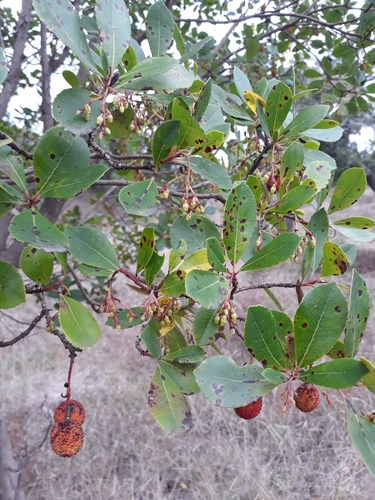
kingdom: Plantae
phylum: Tracheophyta
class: Magnoliopsida
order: Ericales
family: Ericaceae
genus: Arbutus
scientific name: Arbutus unedo
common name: Strawberry-tree
